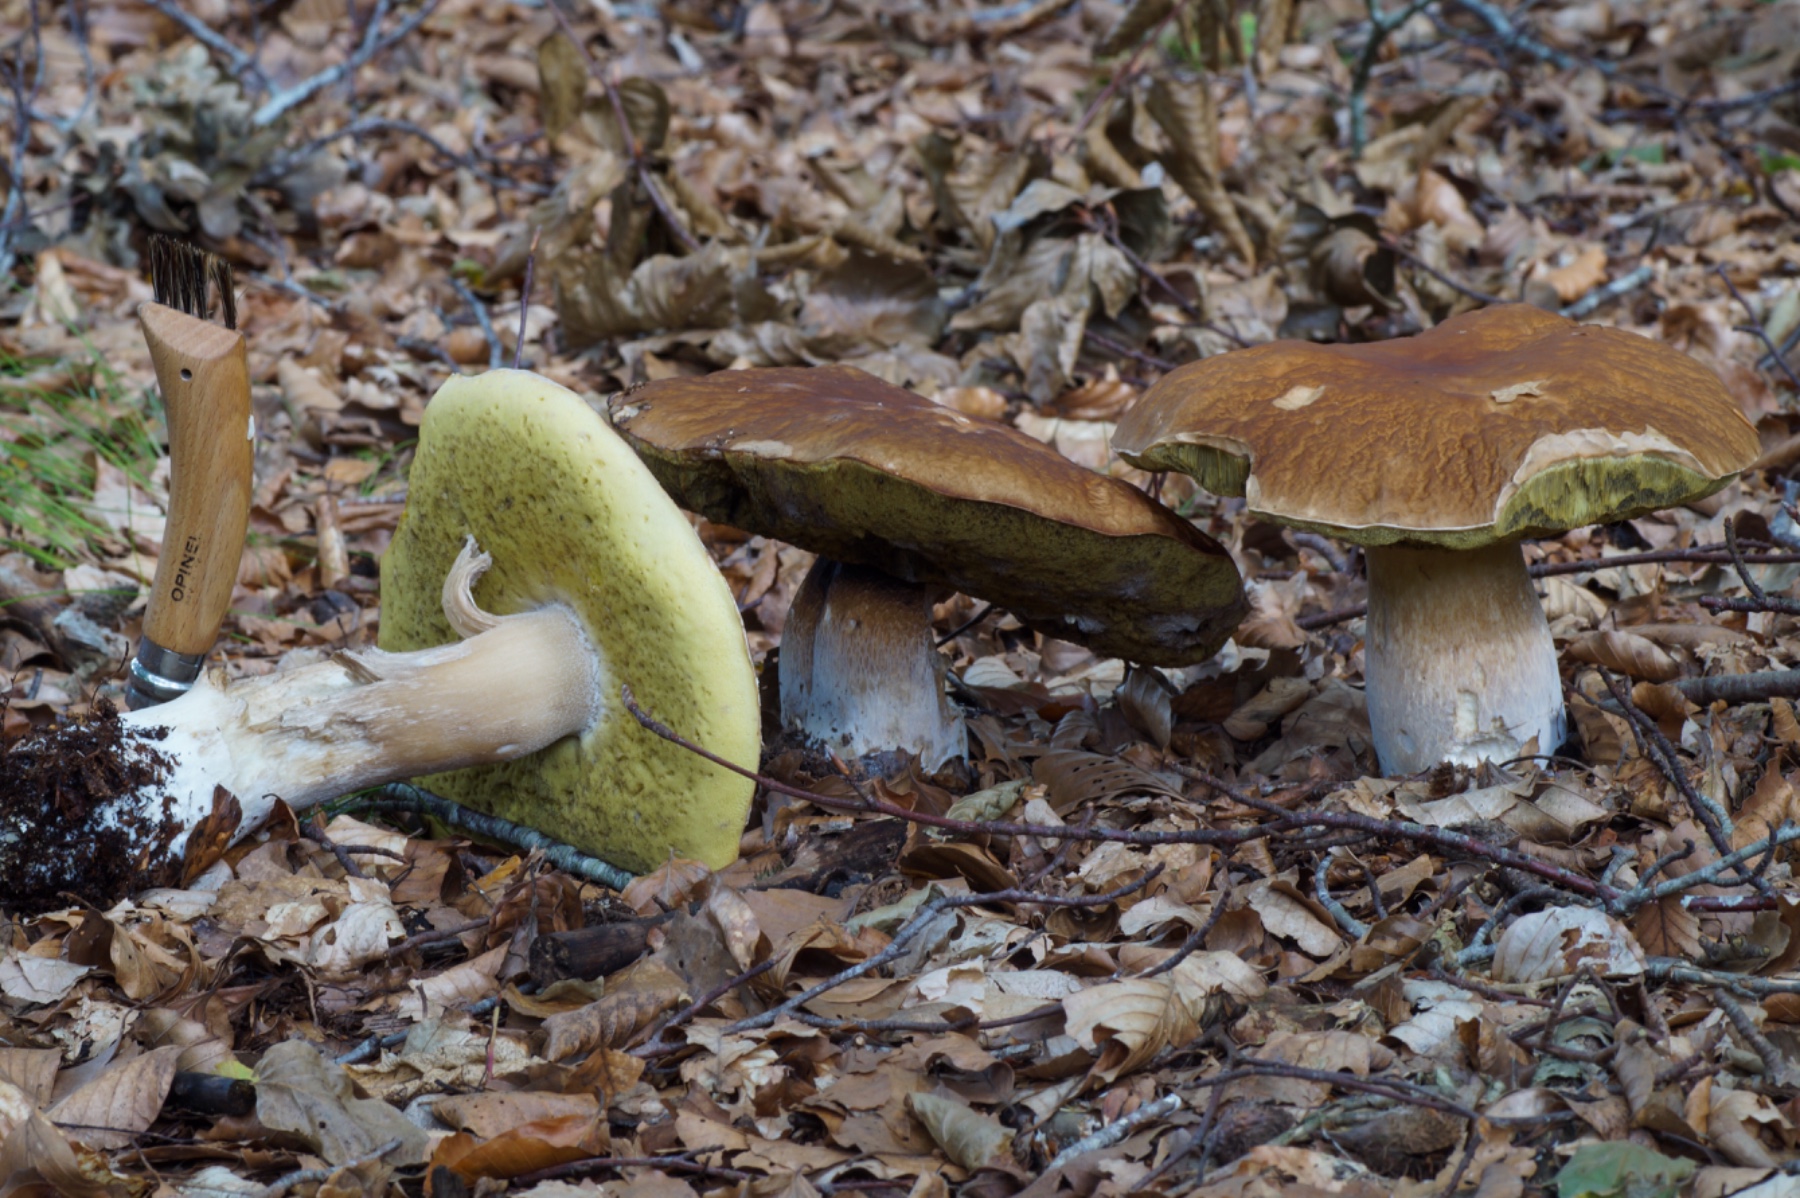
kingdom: Fungi
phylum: Basidiomycota
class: Agaricomycetes
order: Boletales
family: Boletaceae
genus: Boletus
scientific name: Boletus edulis
